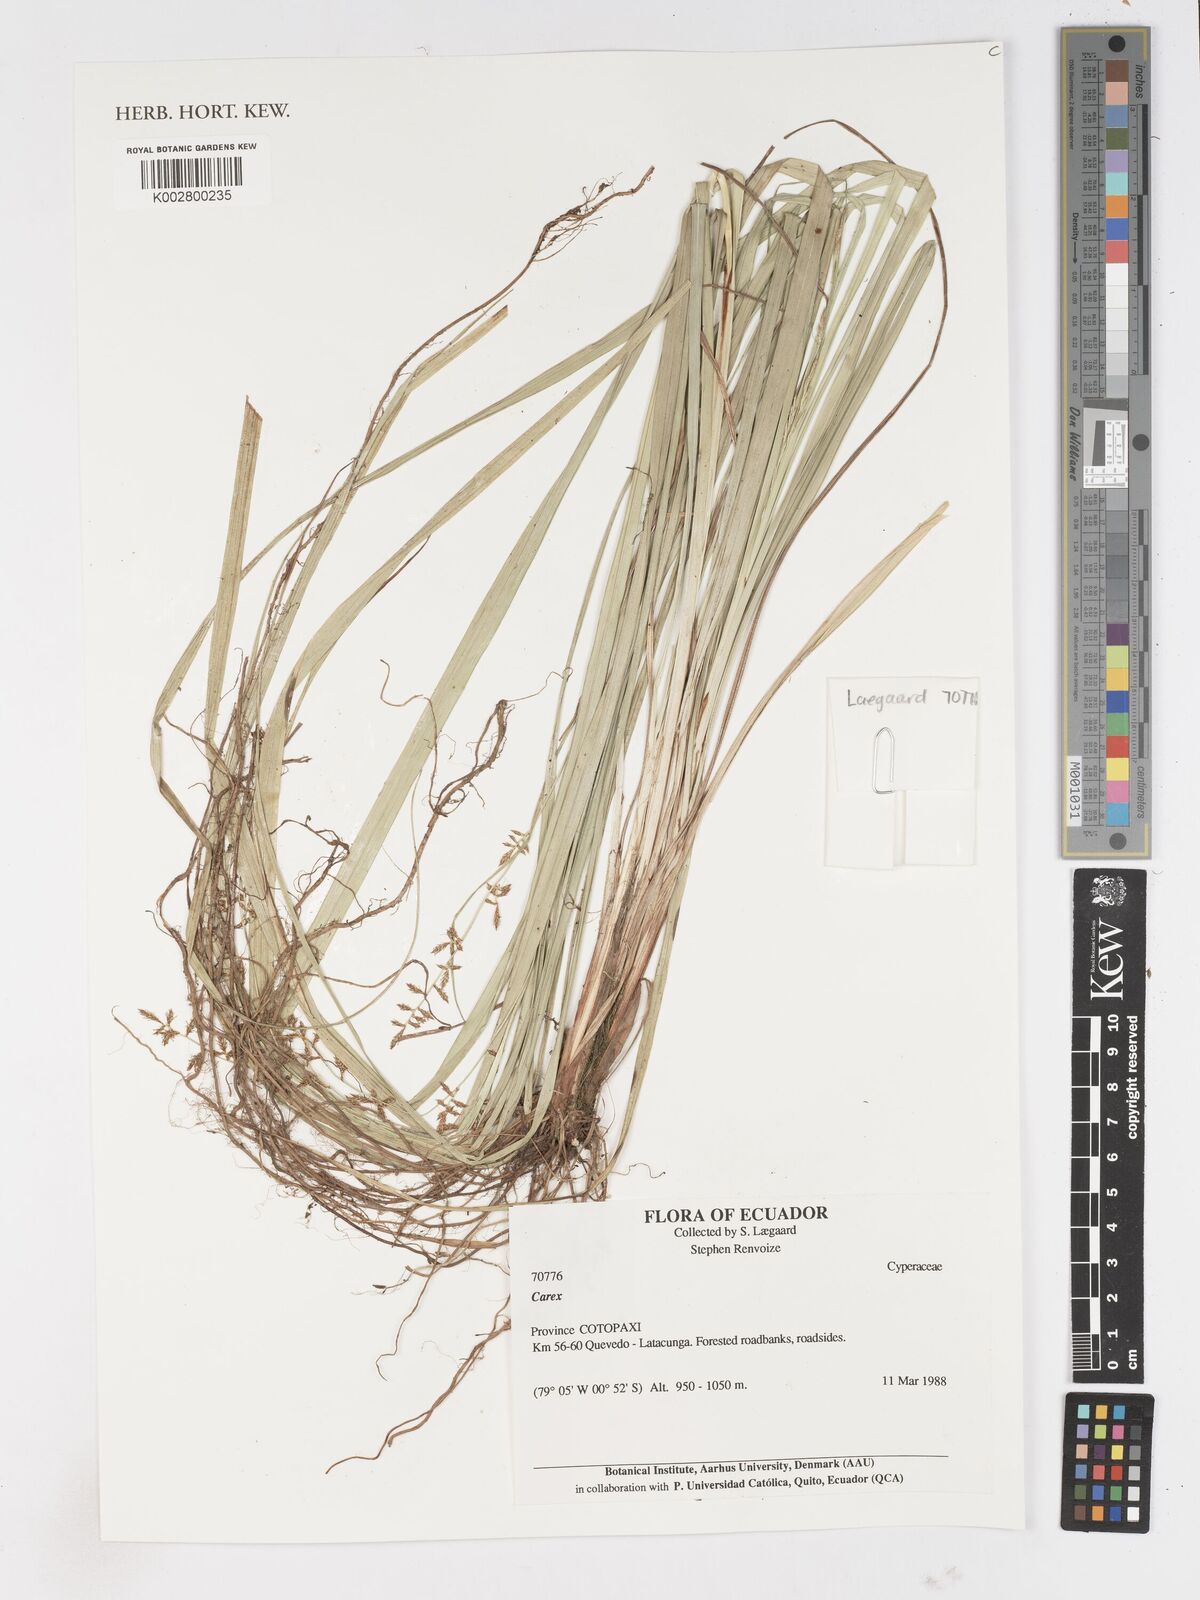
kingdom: Plantae
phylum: Tracheophyta
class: Liliopsida
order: Poales
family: Cyperaceae
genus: Carex
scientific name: Carex
